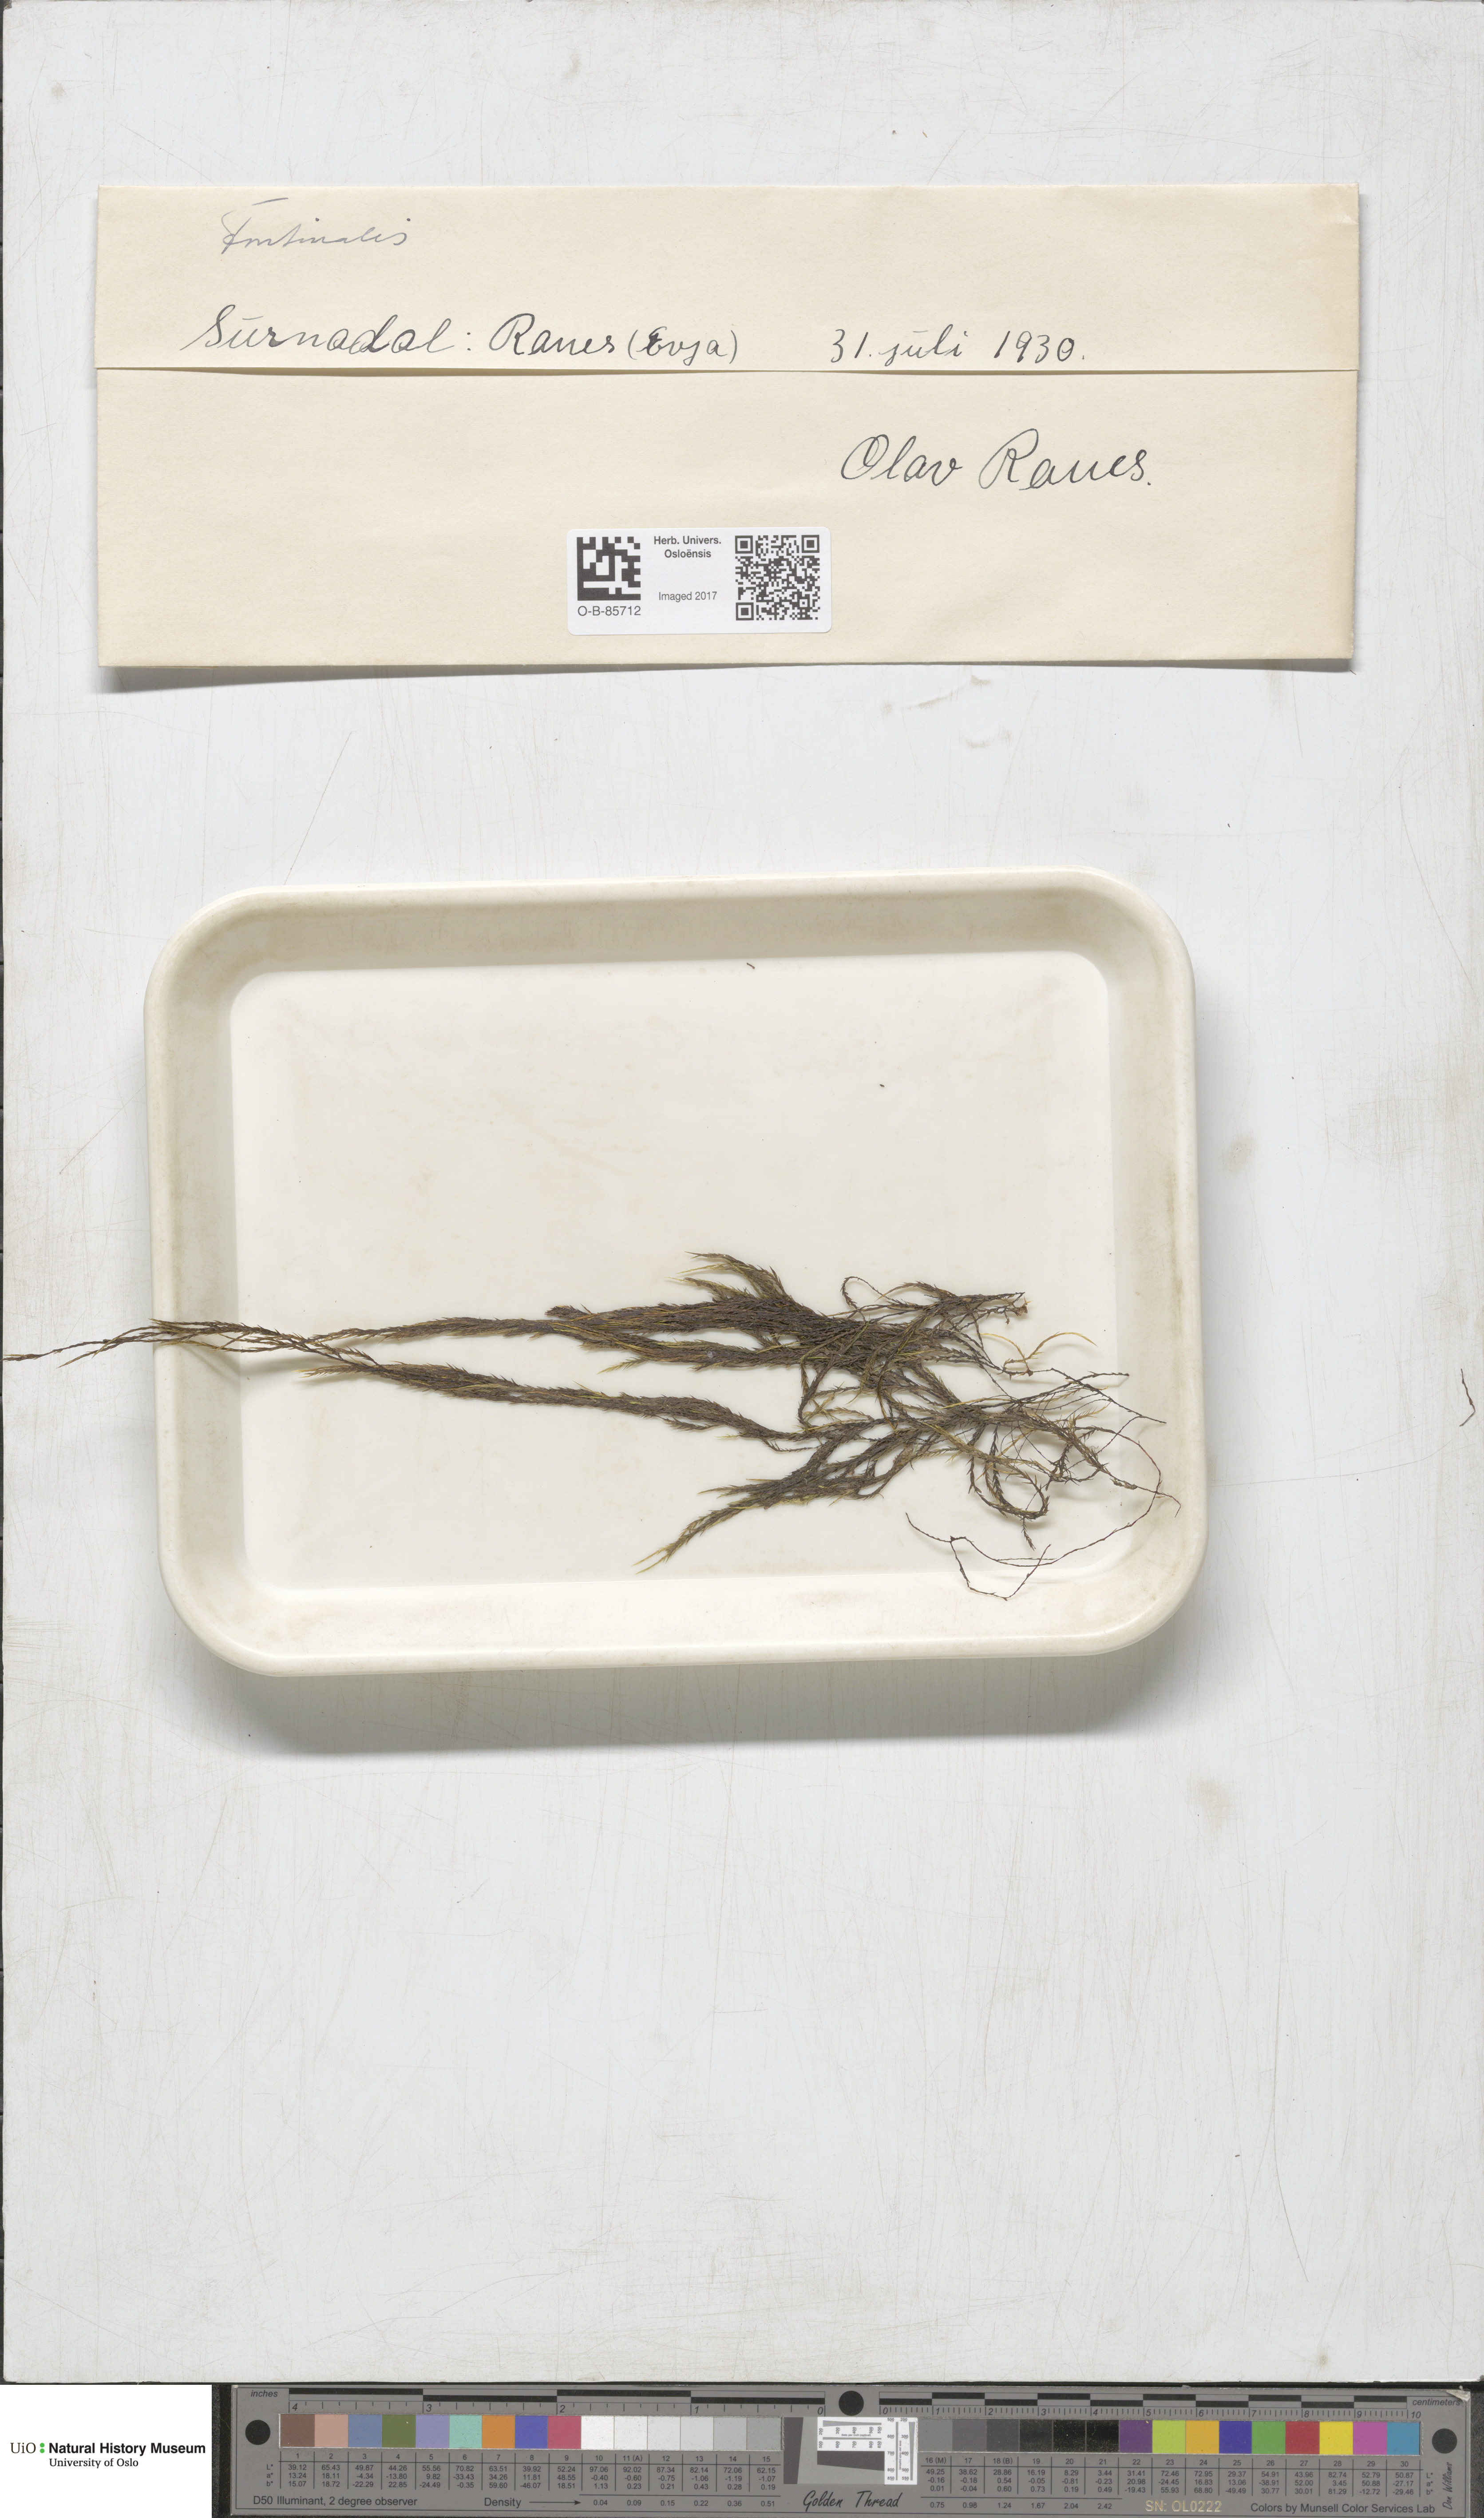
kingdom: Plantae
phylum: Bryophyta
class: Bryopsida
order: Hypnales
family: Fontinalaceae
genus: Fontinalis
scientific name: Fontinalis
